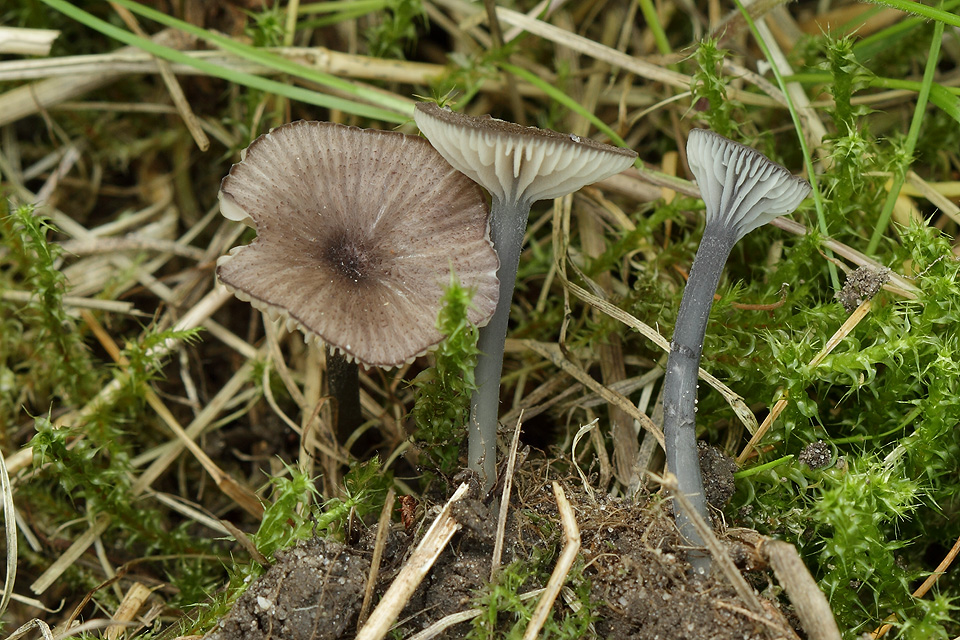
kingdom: Fungi
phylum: Basidiomycota
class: Agaricomycetes
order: Agaricales
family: Entolomataceae
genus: Entoloma
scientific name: Entoloma incarnatofuscescens
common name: tragt-rødblad
